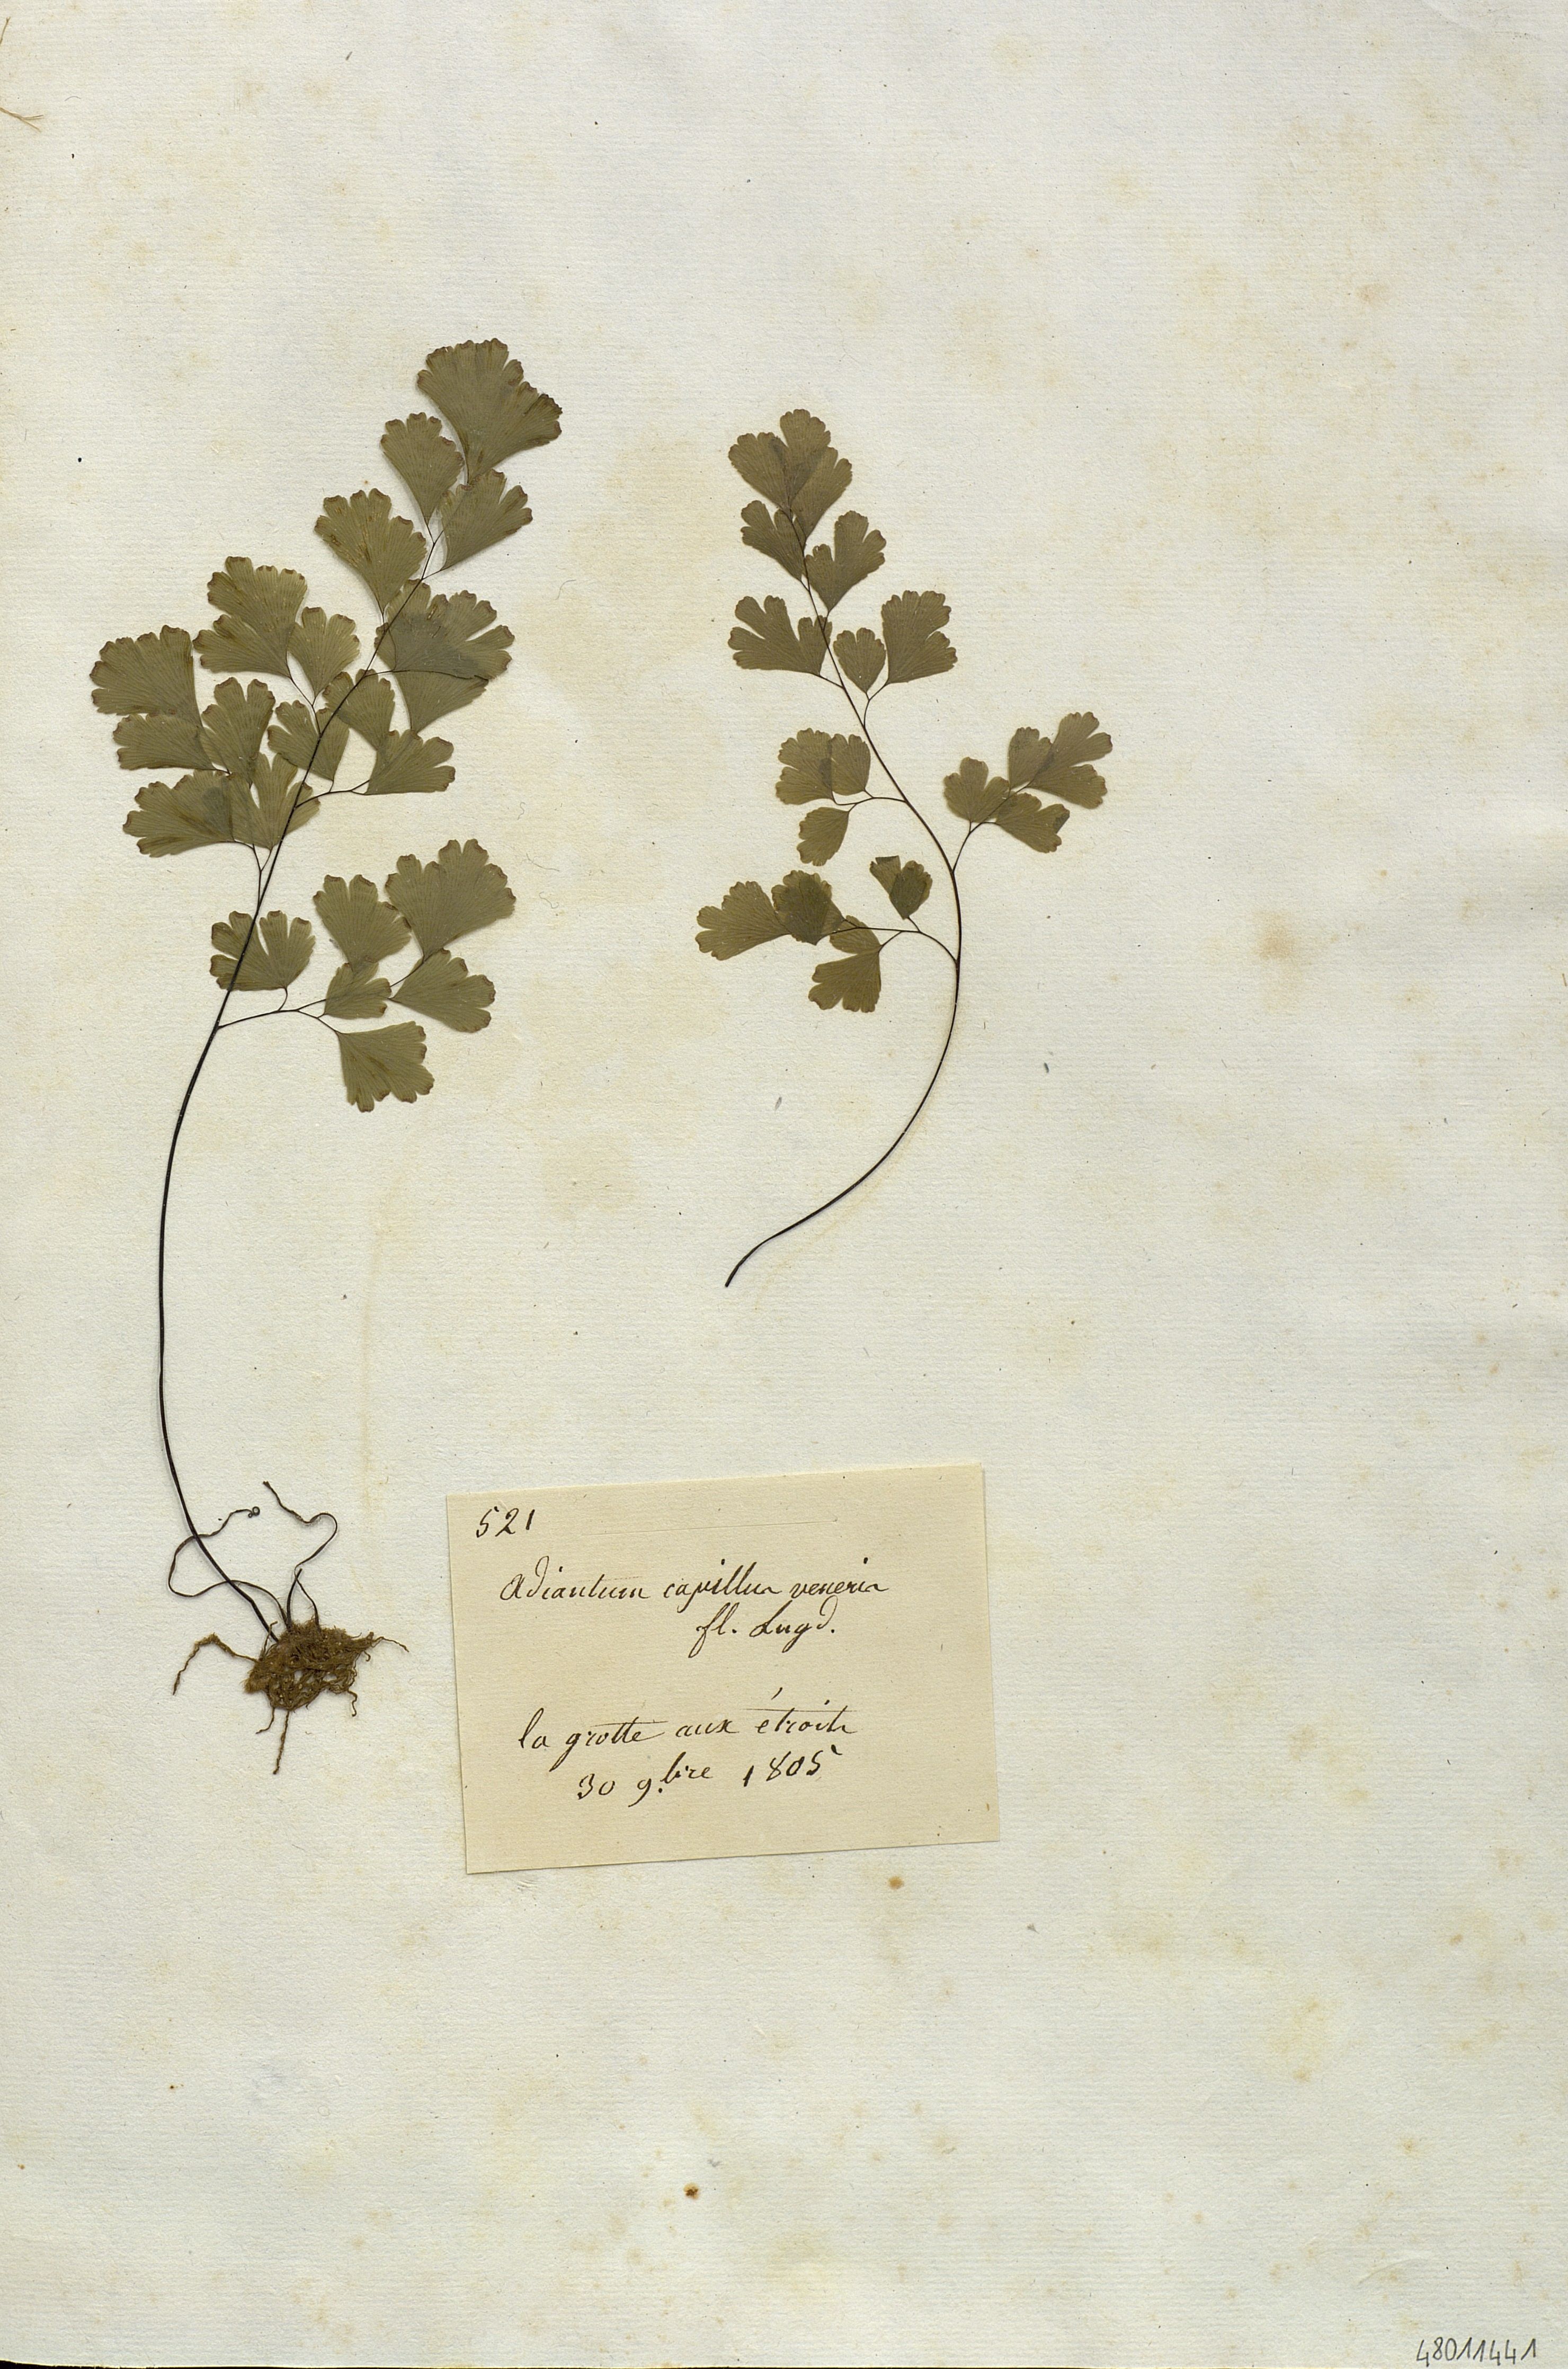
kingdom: Plantae
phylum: Tracheophyta
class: Polypodiopsida
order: Polypodiales
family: Pteridaceae
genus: Adiantum
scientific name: Adiantum capillus-veneris
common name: Maidenhair fern
